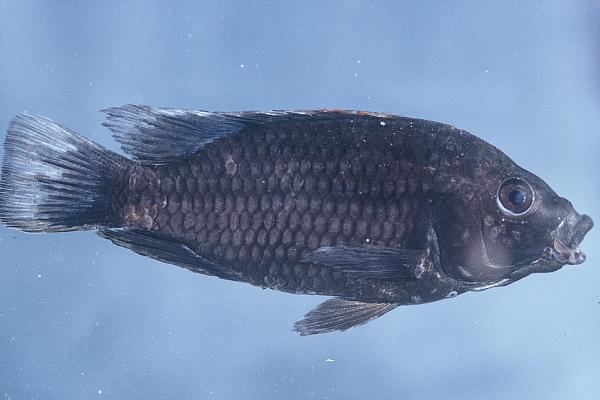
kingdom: Animalia
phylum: Chordata
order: Perciformes
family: Cichlidae
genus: Tilapia
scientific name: Tilapia guinasana
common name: Otjikoto tilapia
